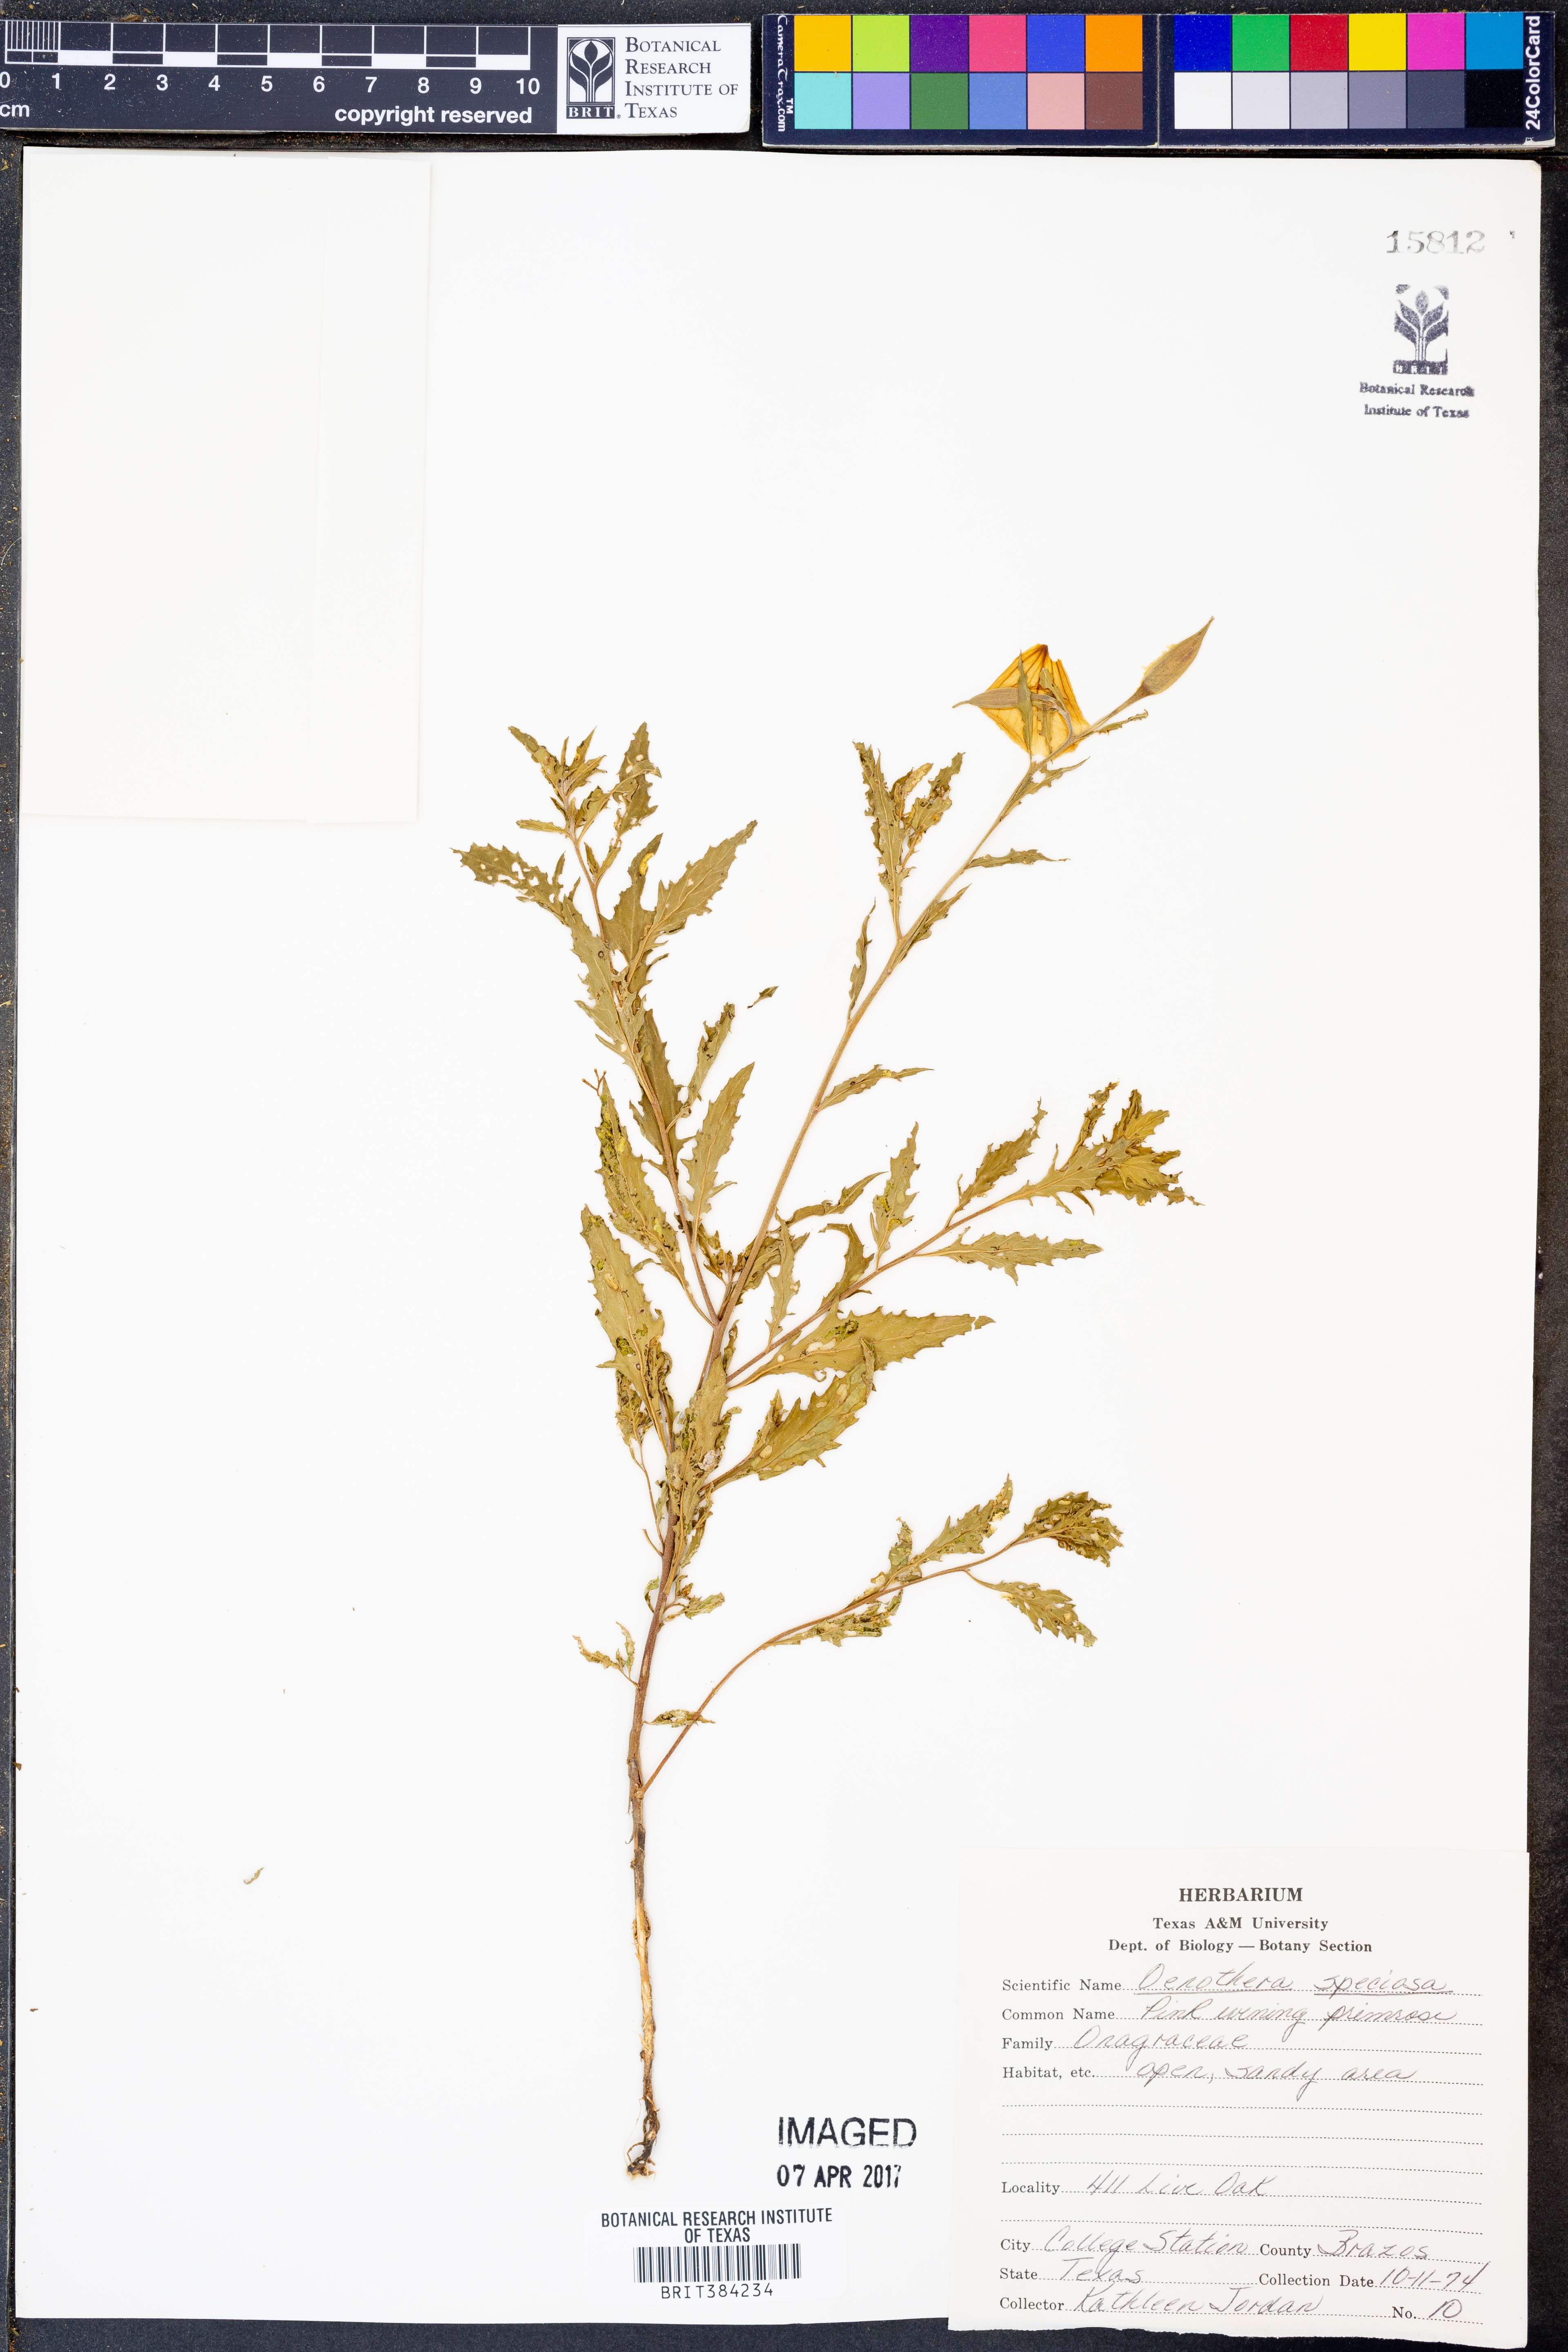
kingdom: Plantae
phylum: Tracheophyta
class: Magnoliopsida
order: Myrtales
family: Onagraceae
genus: Oenothera
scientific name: Oenothera speciosa
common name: White evening-primrose
